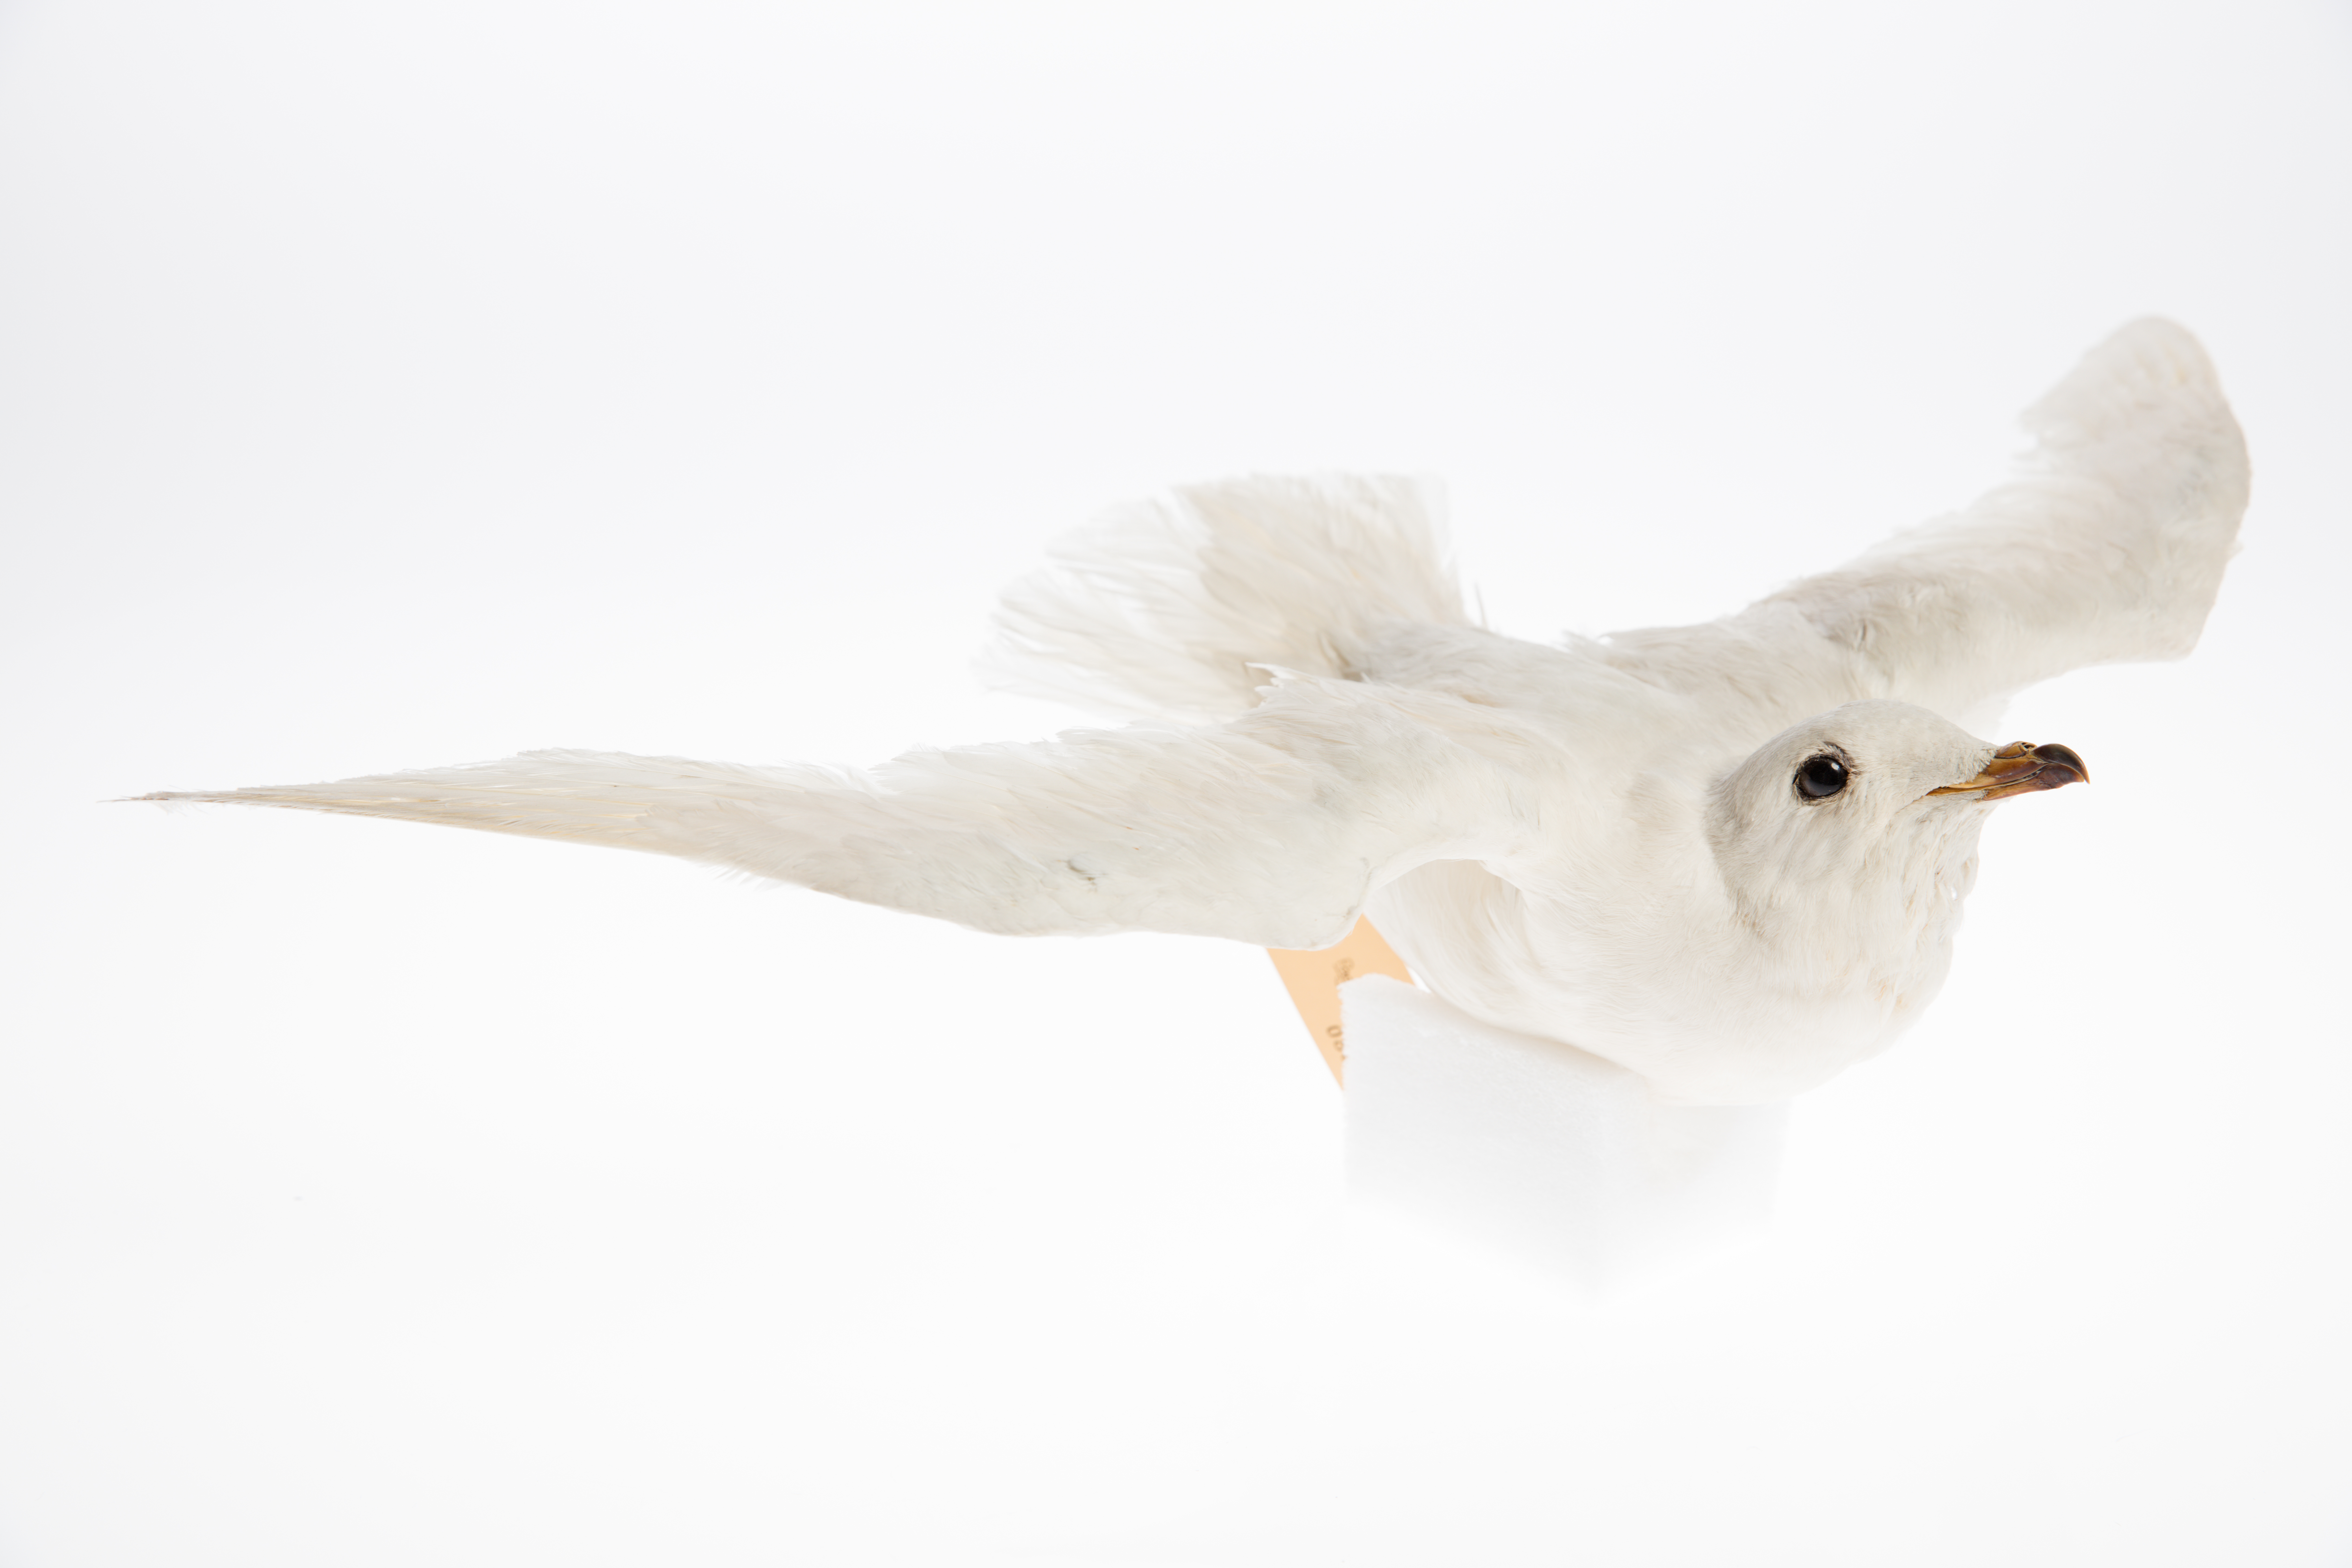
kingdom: Animalia
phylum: Chordata
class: Aves
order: Procellariiformes
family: Procellariidae
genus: Pagodroma
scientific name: Pagodroma nivea
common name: Snow petrel
